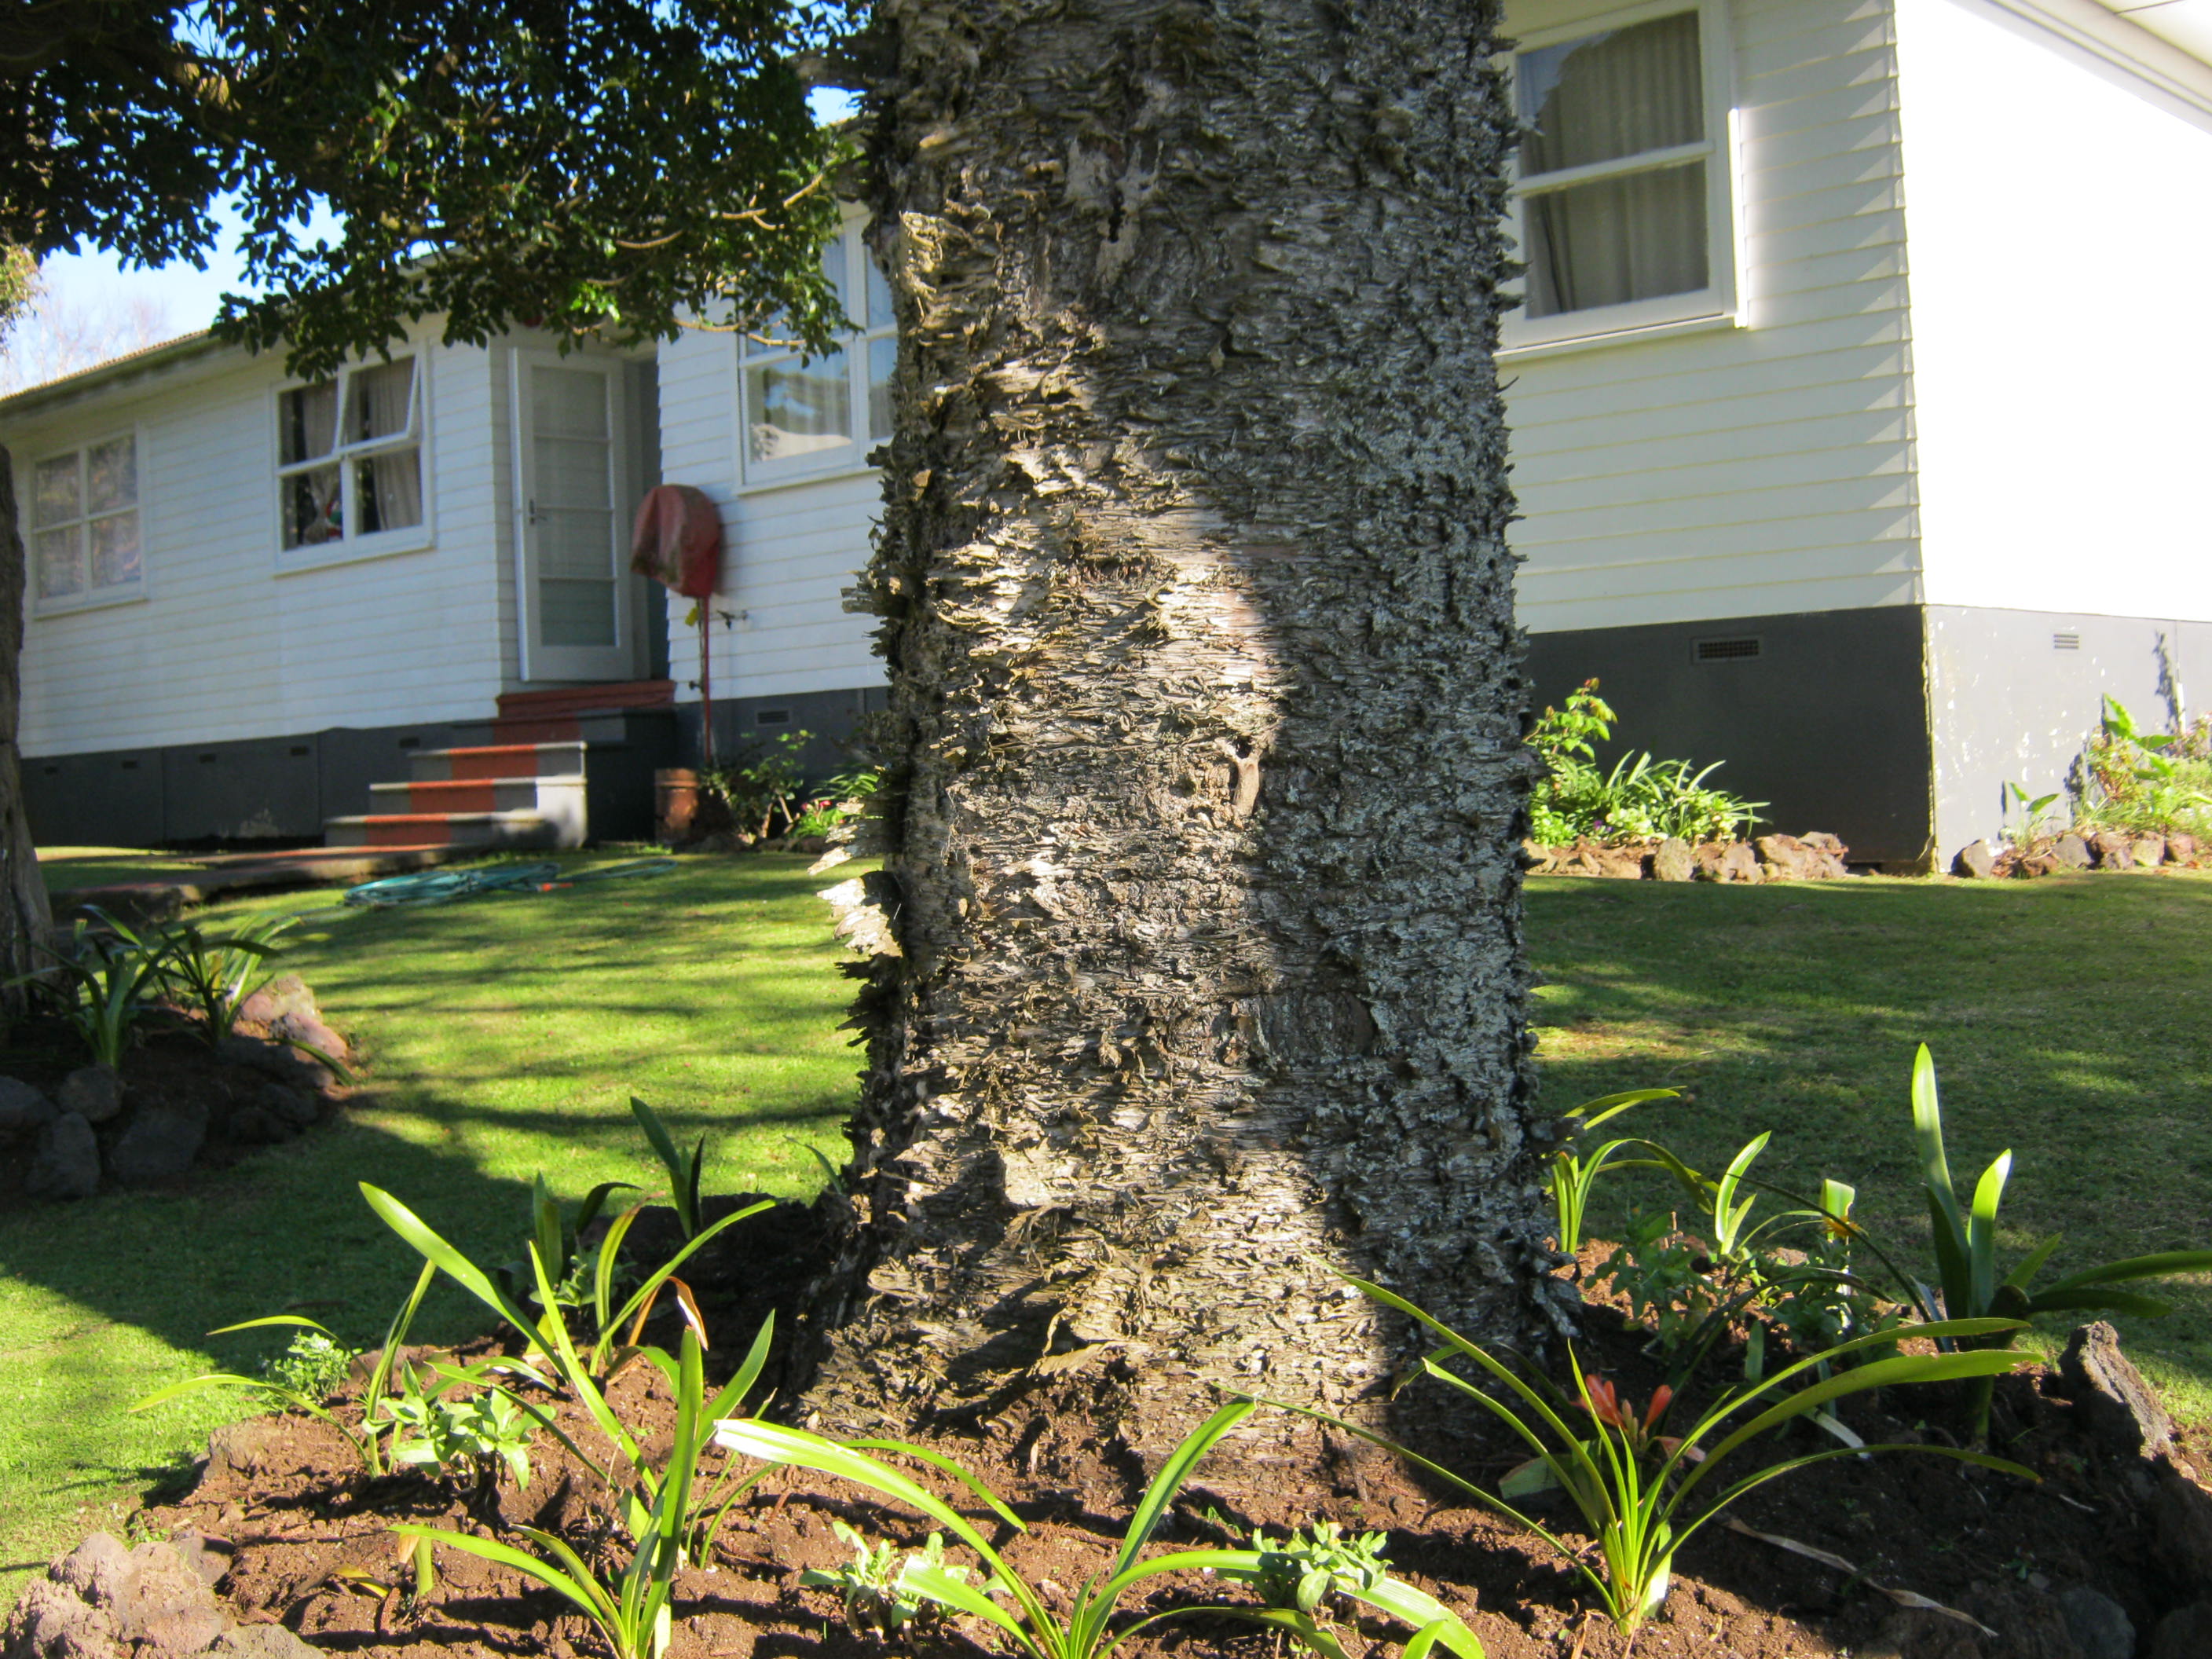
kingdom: Plantae
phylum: Tracheophyta
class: Pinopsida
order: Pinales
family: Araucariaceae
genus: Araucaria
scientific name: Araucaria cunninghamii
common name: Colonial pine
